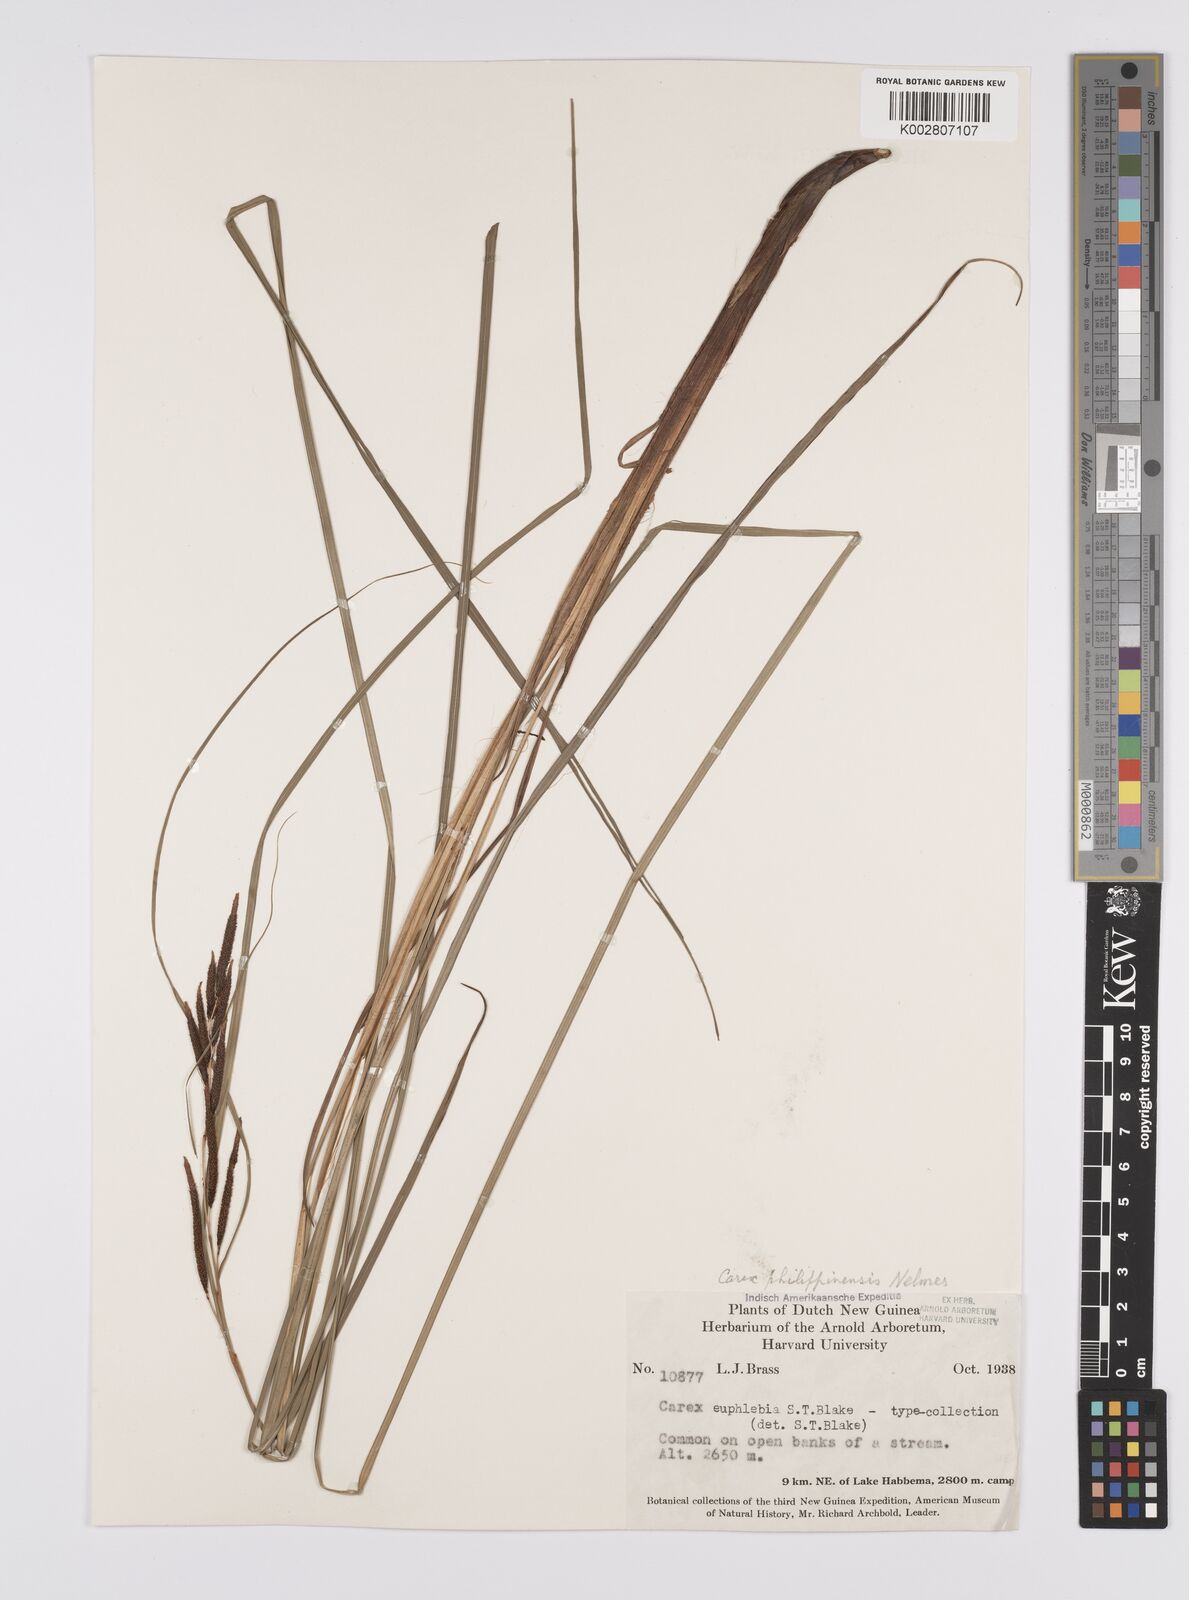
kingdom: Plantae
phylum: Tracheophyta
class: Liliopsida
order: Poales
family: Cyperaceae
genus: Carex
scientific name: Carex graeffeana
